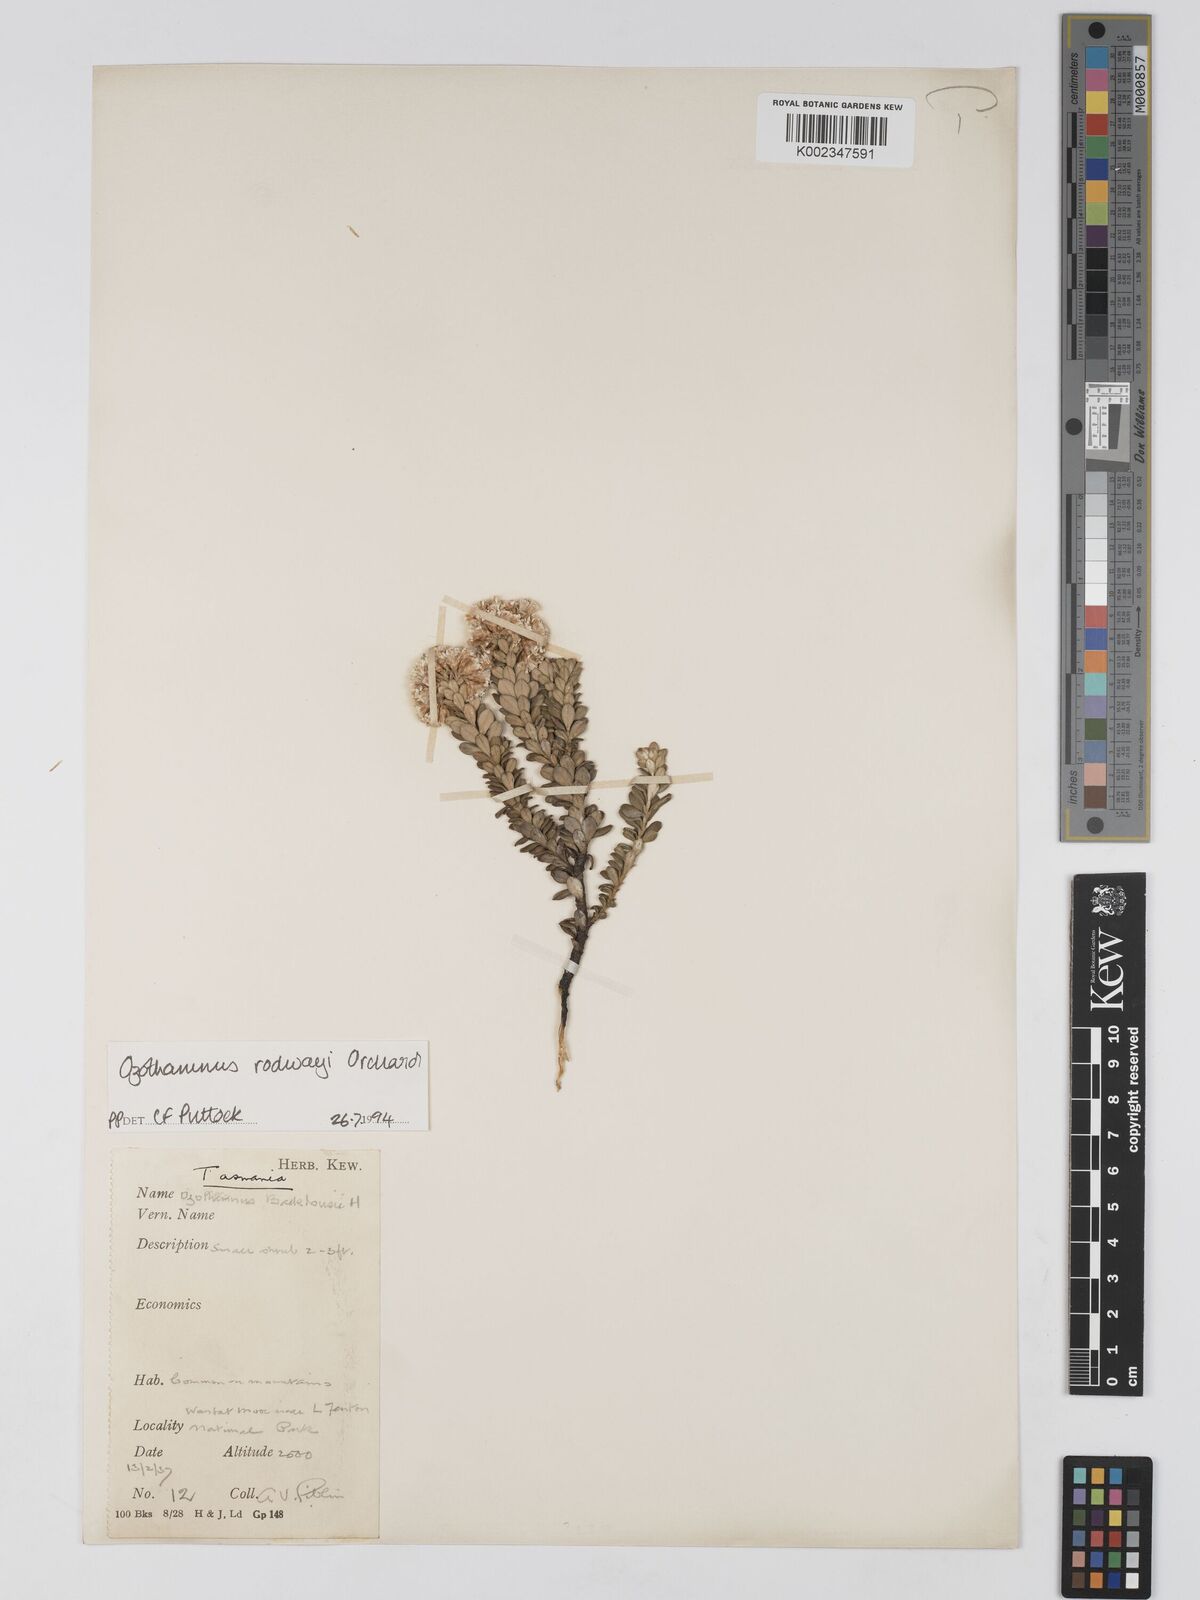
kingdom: Plantae
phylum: Tracheophyta
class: Magnoliopsida
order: Asterales
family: Asteraceae
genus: Ozothamnus
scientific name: Ozothamnus rodwayi
